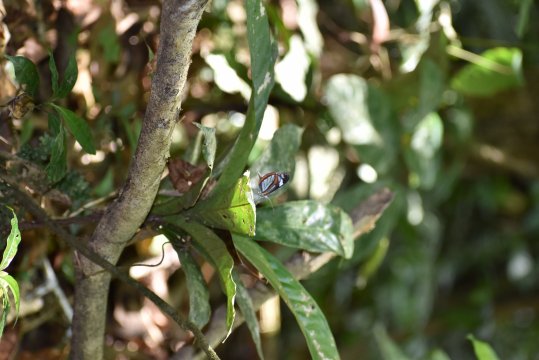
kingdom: Animalia
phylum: Arthropoda
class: Insecta
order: Lepidoptera
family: Pieridae
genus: Dismorphia
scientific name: Dismorphia theucharila
